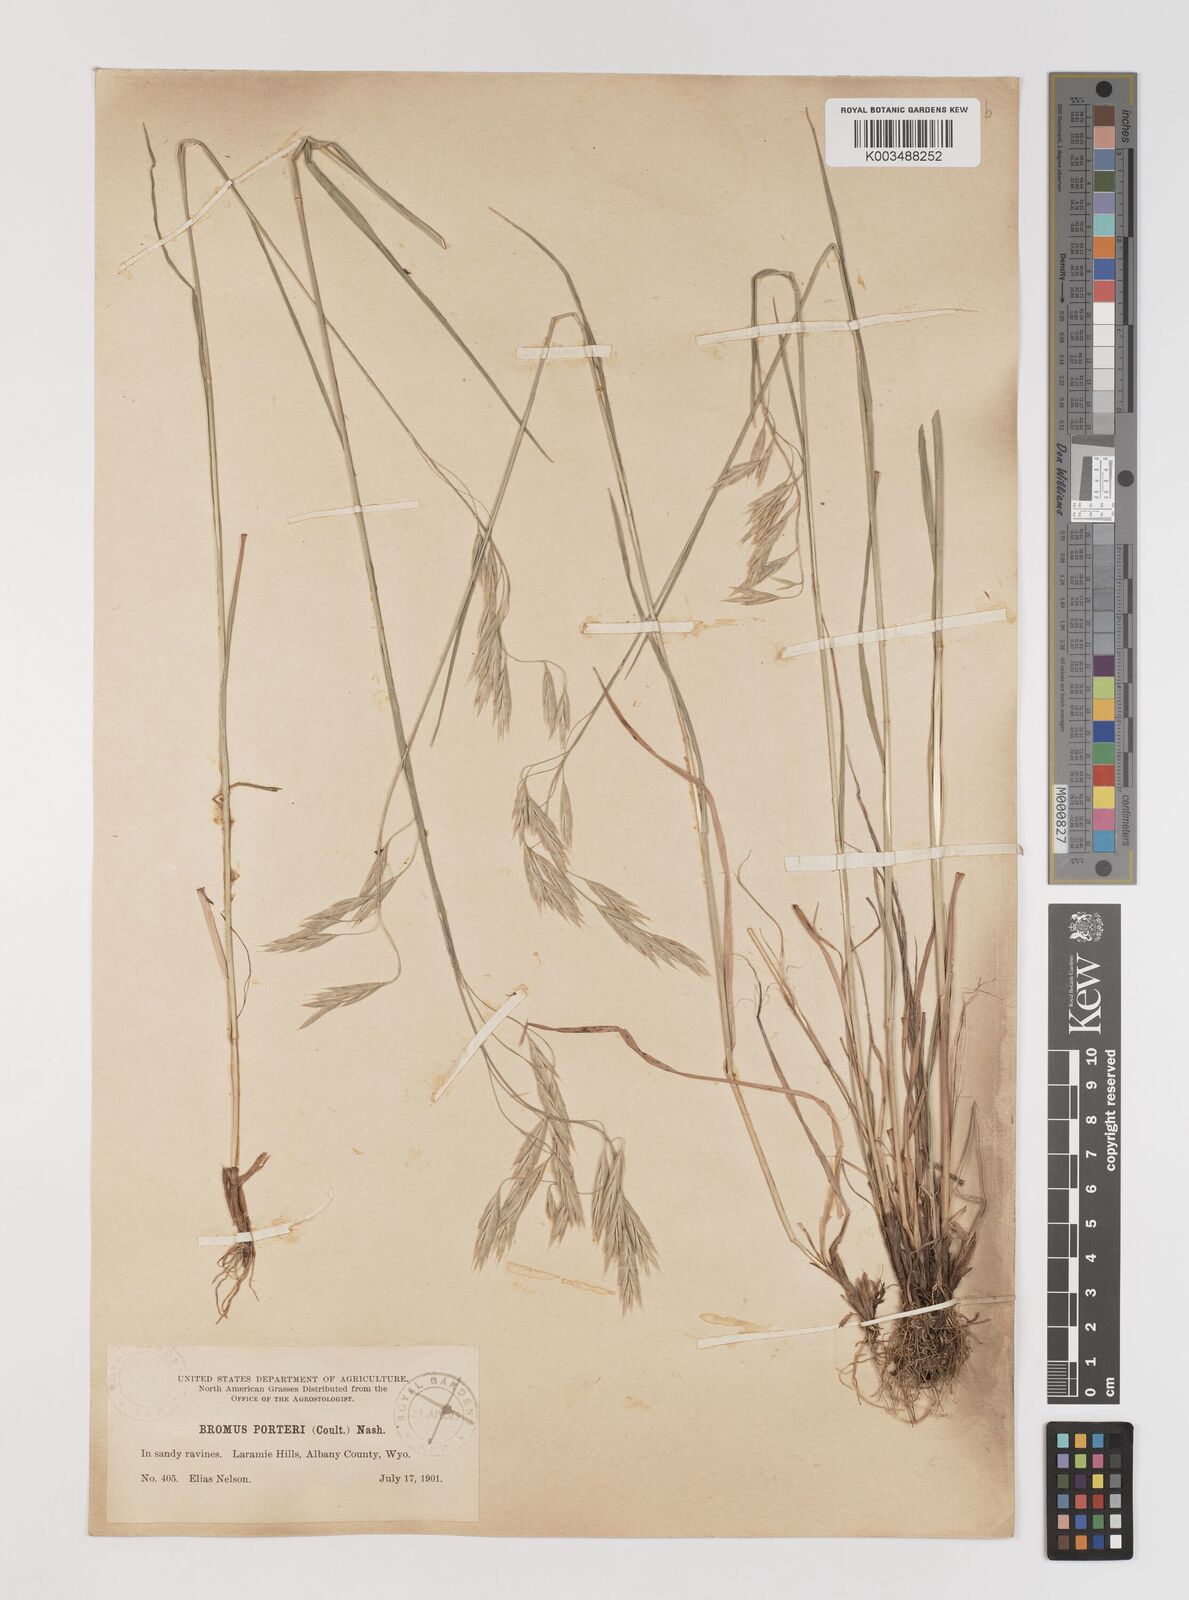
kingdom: Plantae
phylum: Tracheophyta
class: Liliopsida
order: Poales
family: Poaceae
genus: Bromus
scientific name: Bromus porteri
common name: Nodding brome
